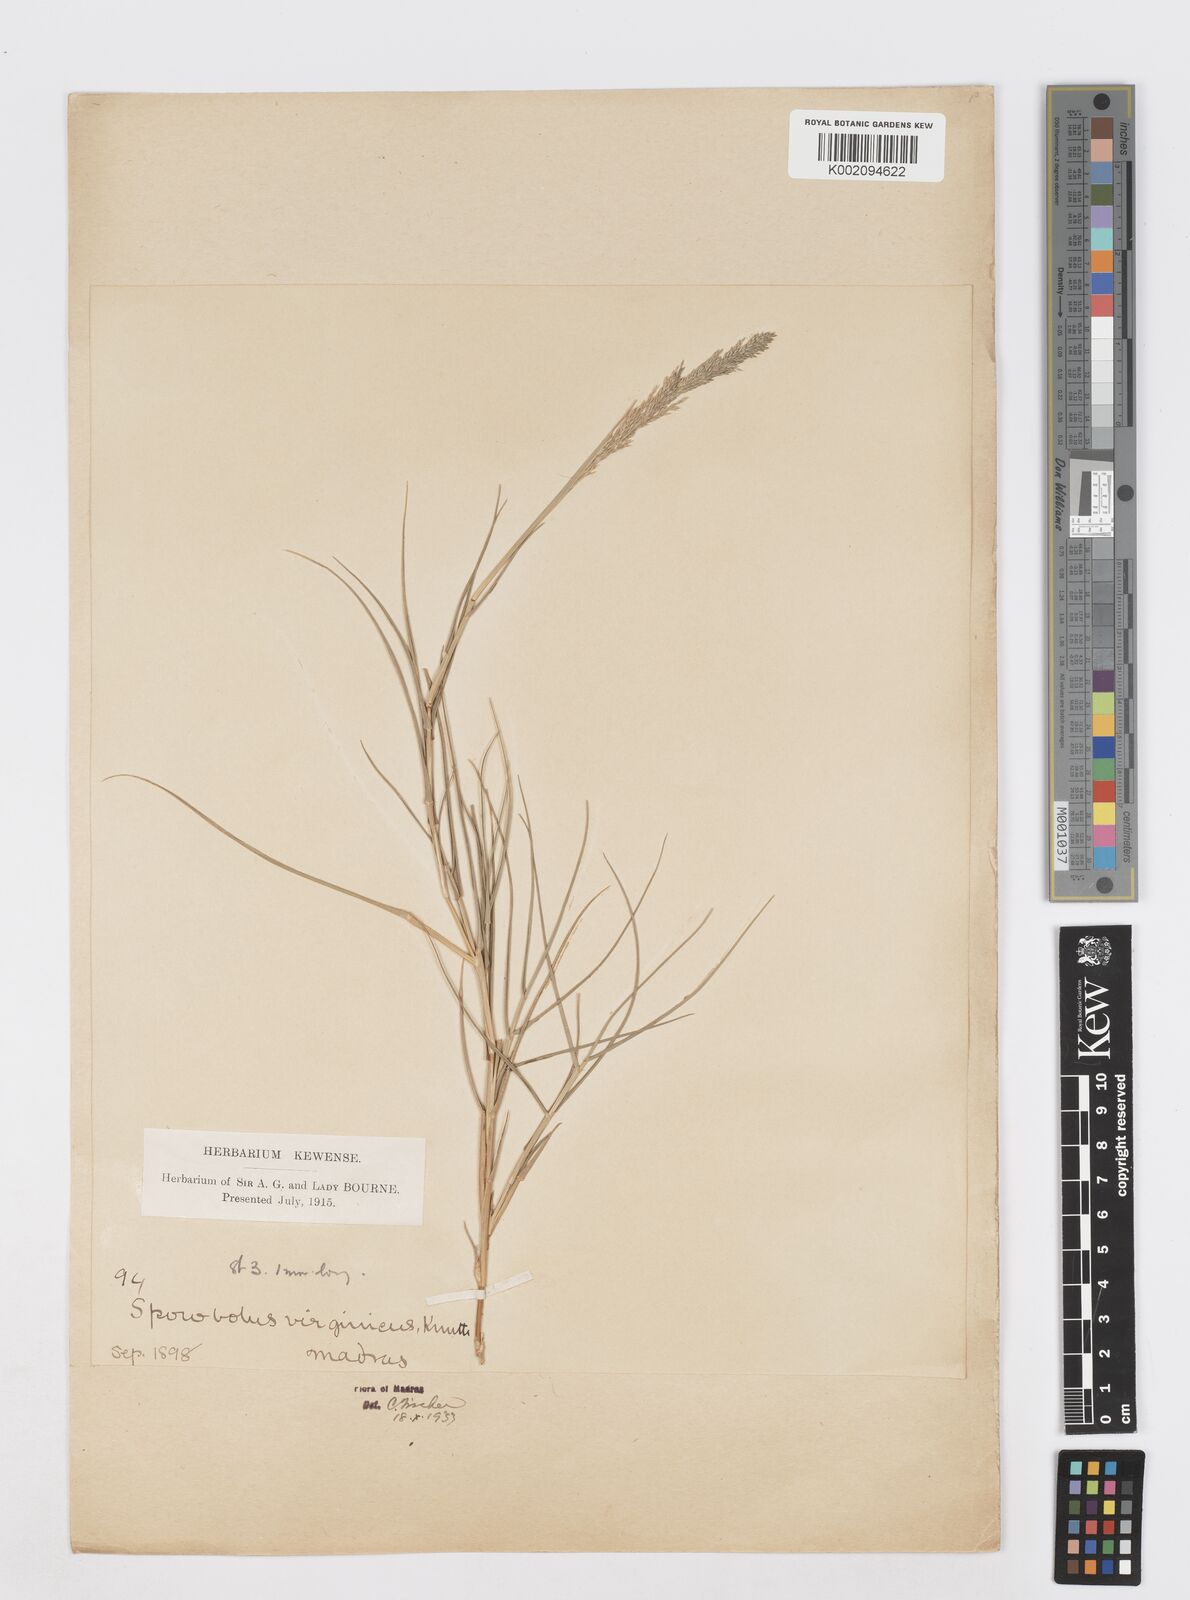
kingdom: Plantae
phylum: Tracheophyta
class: Liliopsida
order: Poales
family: Poaceae
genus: Sporobolus
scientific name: Sporobolus virginicus
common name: Beach dropseed
